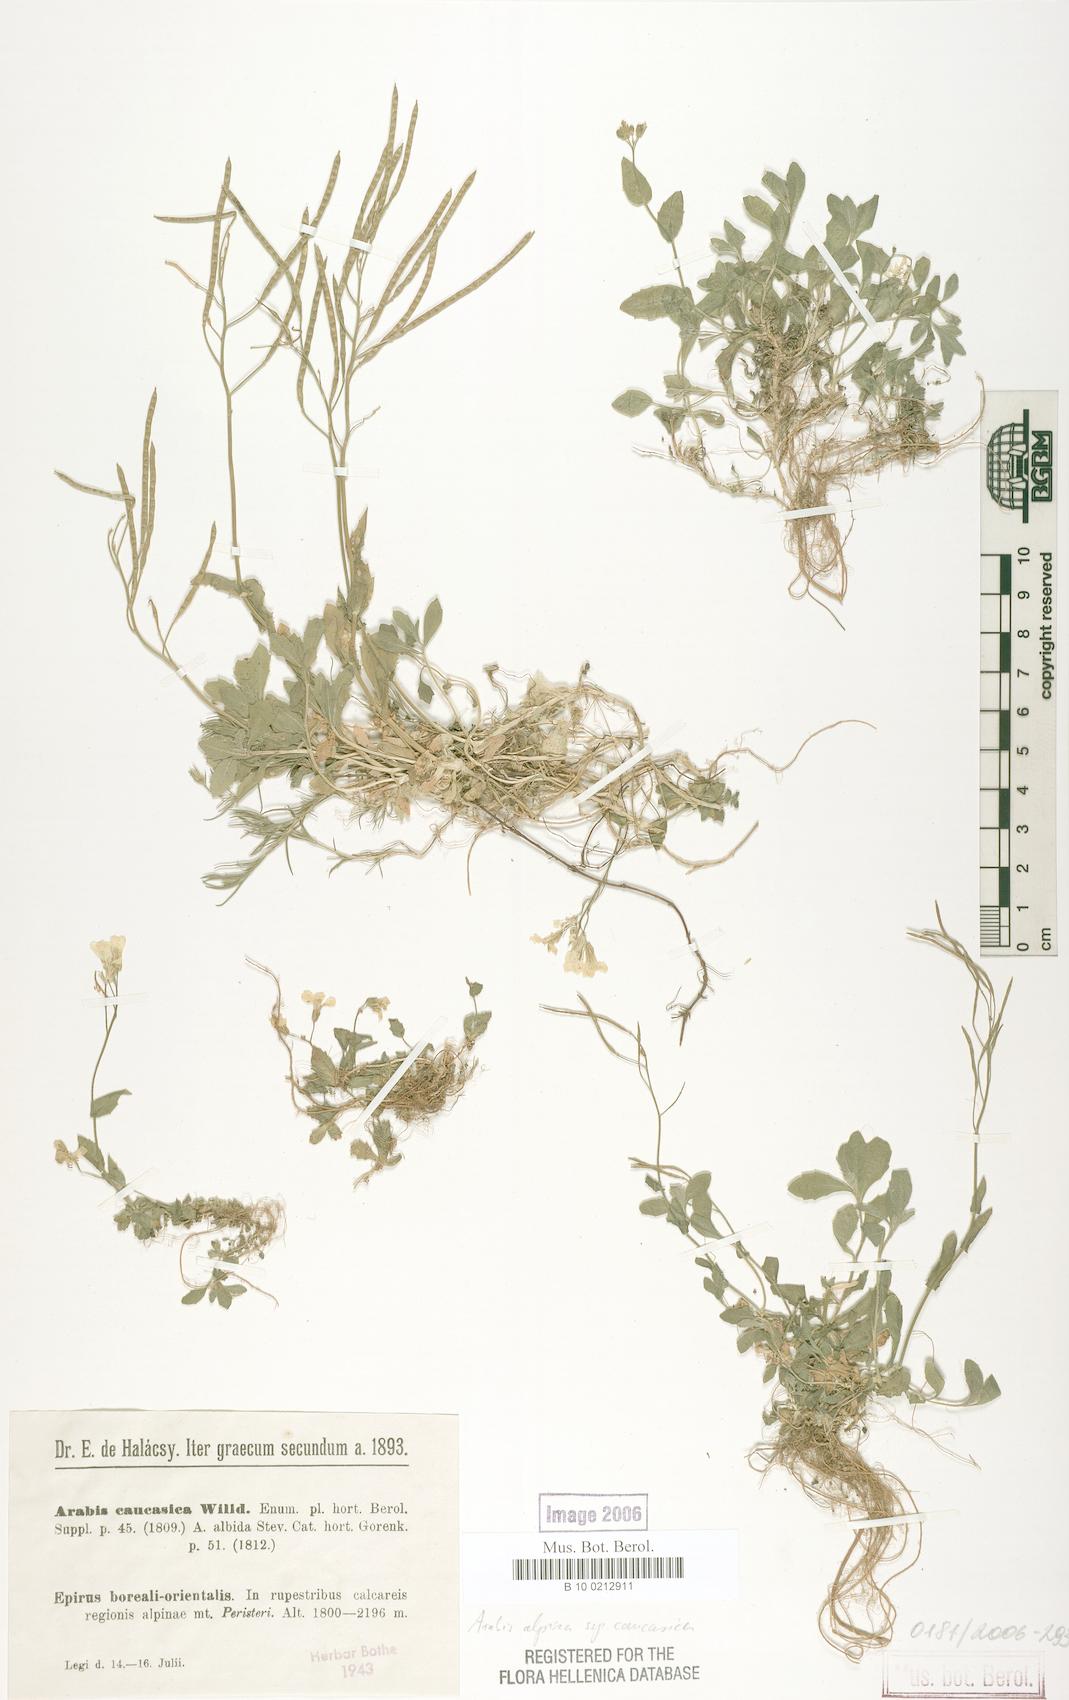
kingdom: Plantae
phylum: Tracheophyta
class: Magnoliopsida
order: Brassicales
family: Brassicaceae
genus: Arabis
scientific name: Arabis caucasica
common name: Gray rockcress
